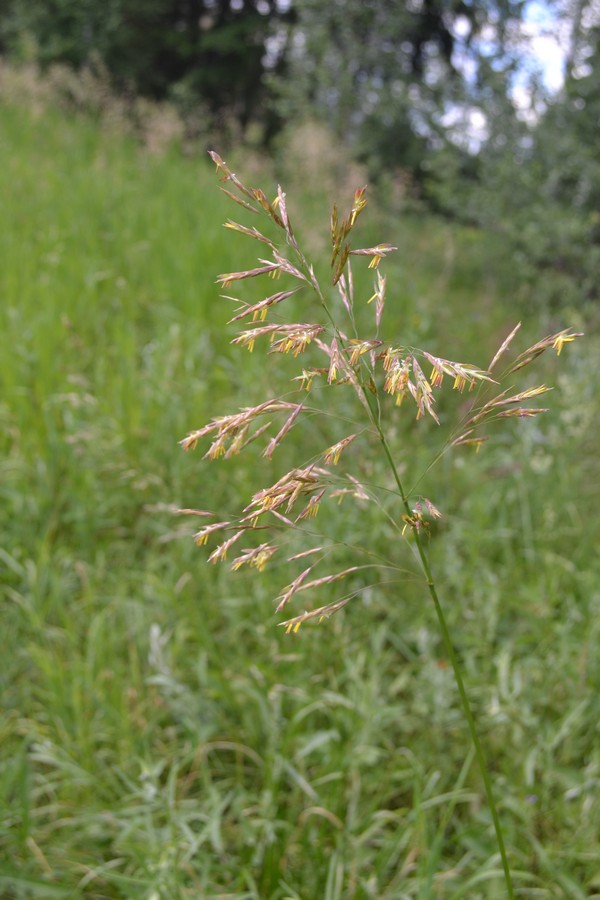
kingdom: Plantae
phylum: Tracheophyta
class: Liliopsida
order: Poales
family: Poaceae
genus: Bromus
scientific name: Bromus inermis
